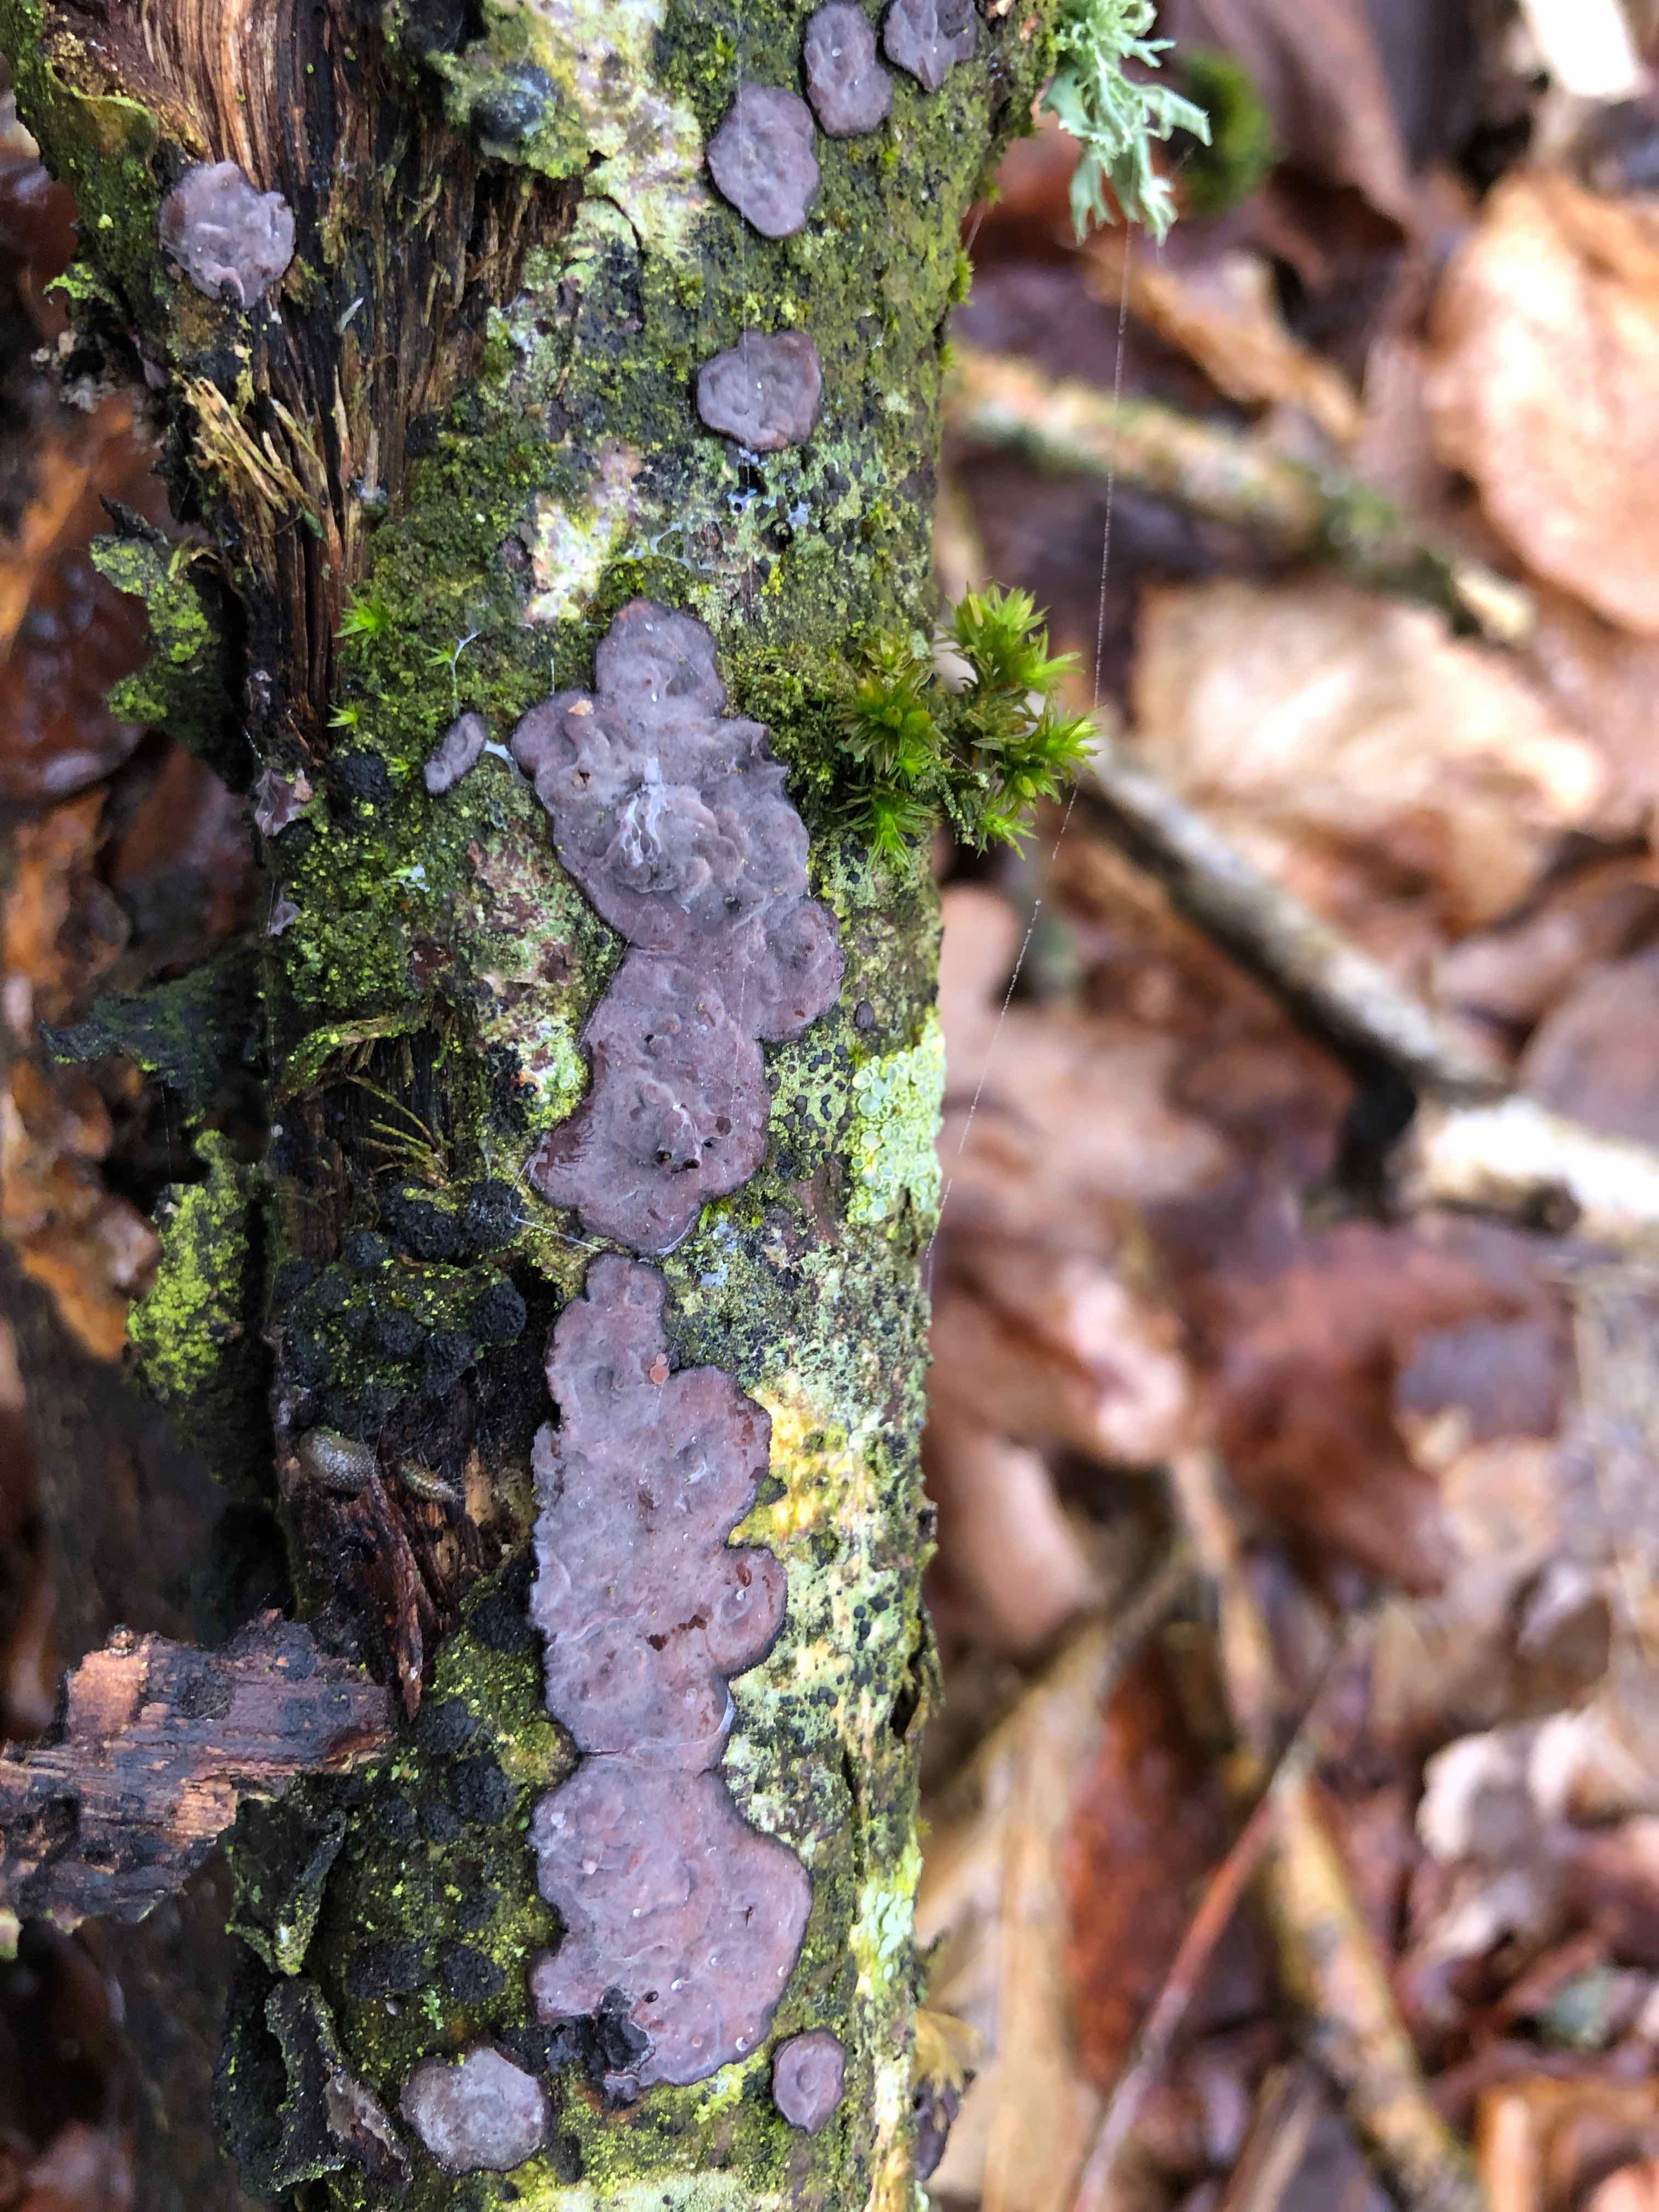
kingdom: Fungi
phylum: Basidiomycota
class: Agaricomycetes
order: Russulales
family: Peniophoraceae
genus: Peniophora
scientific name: Peniophora quercina
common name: ege-voksskind
